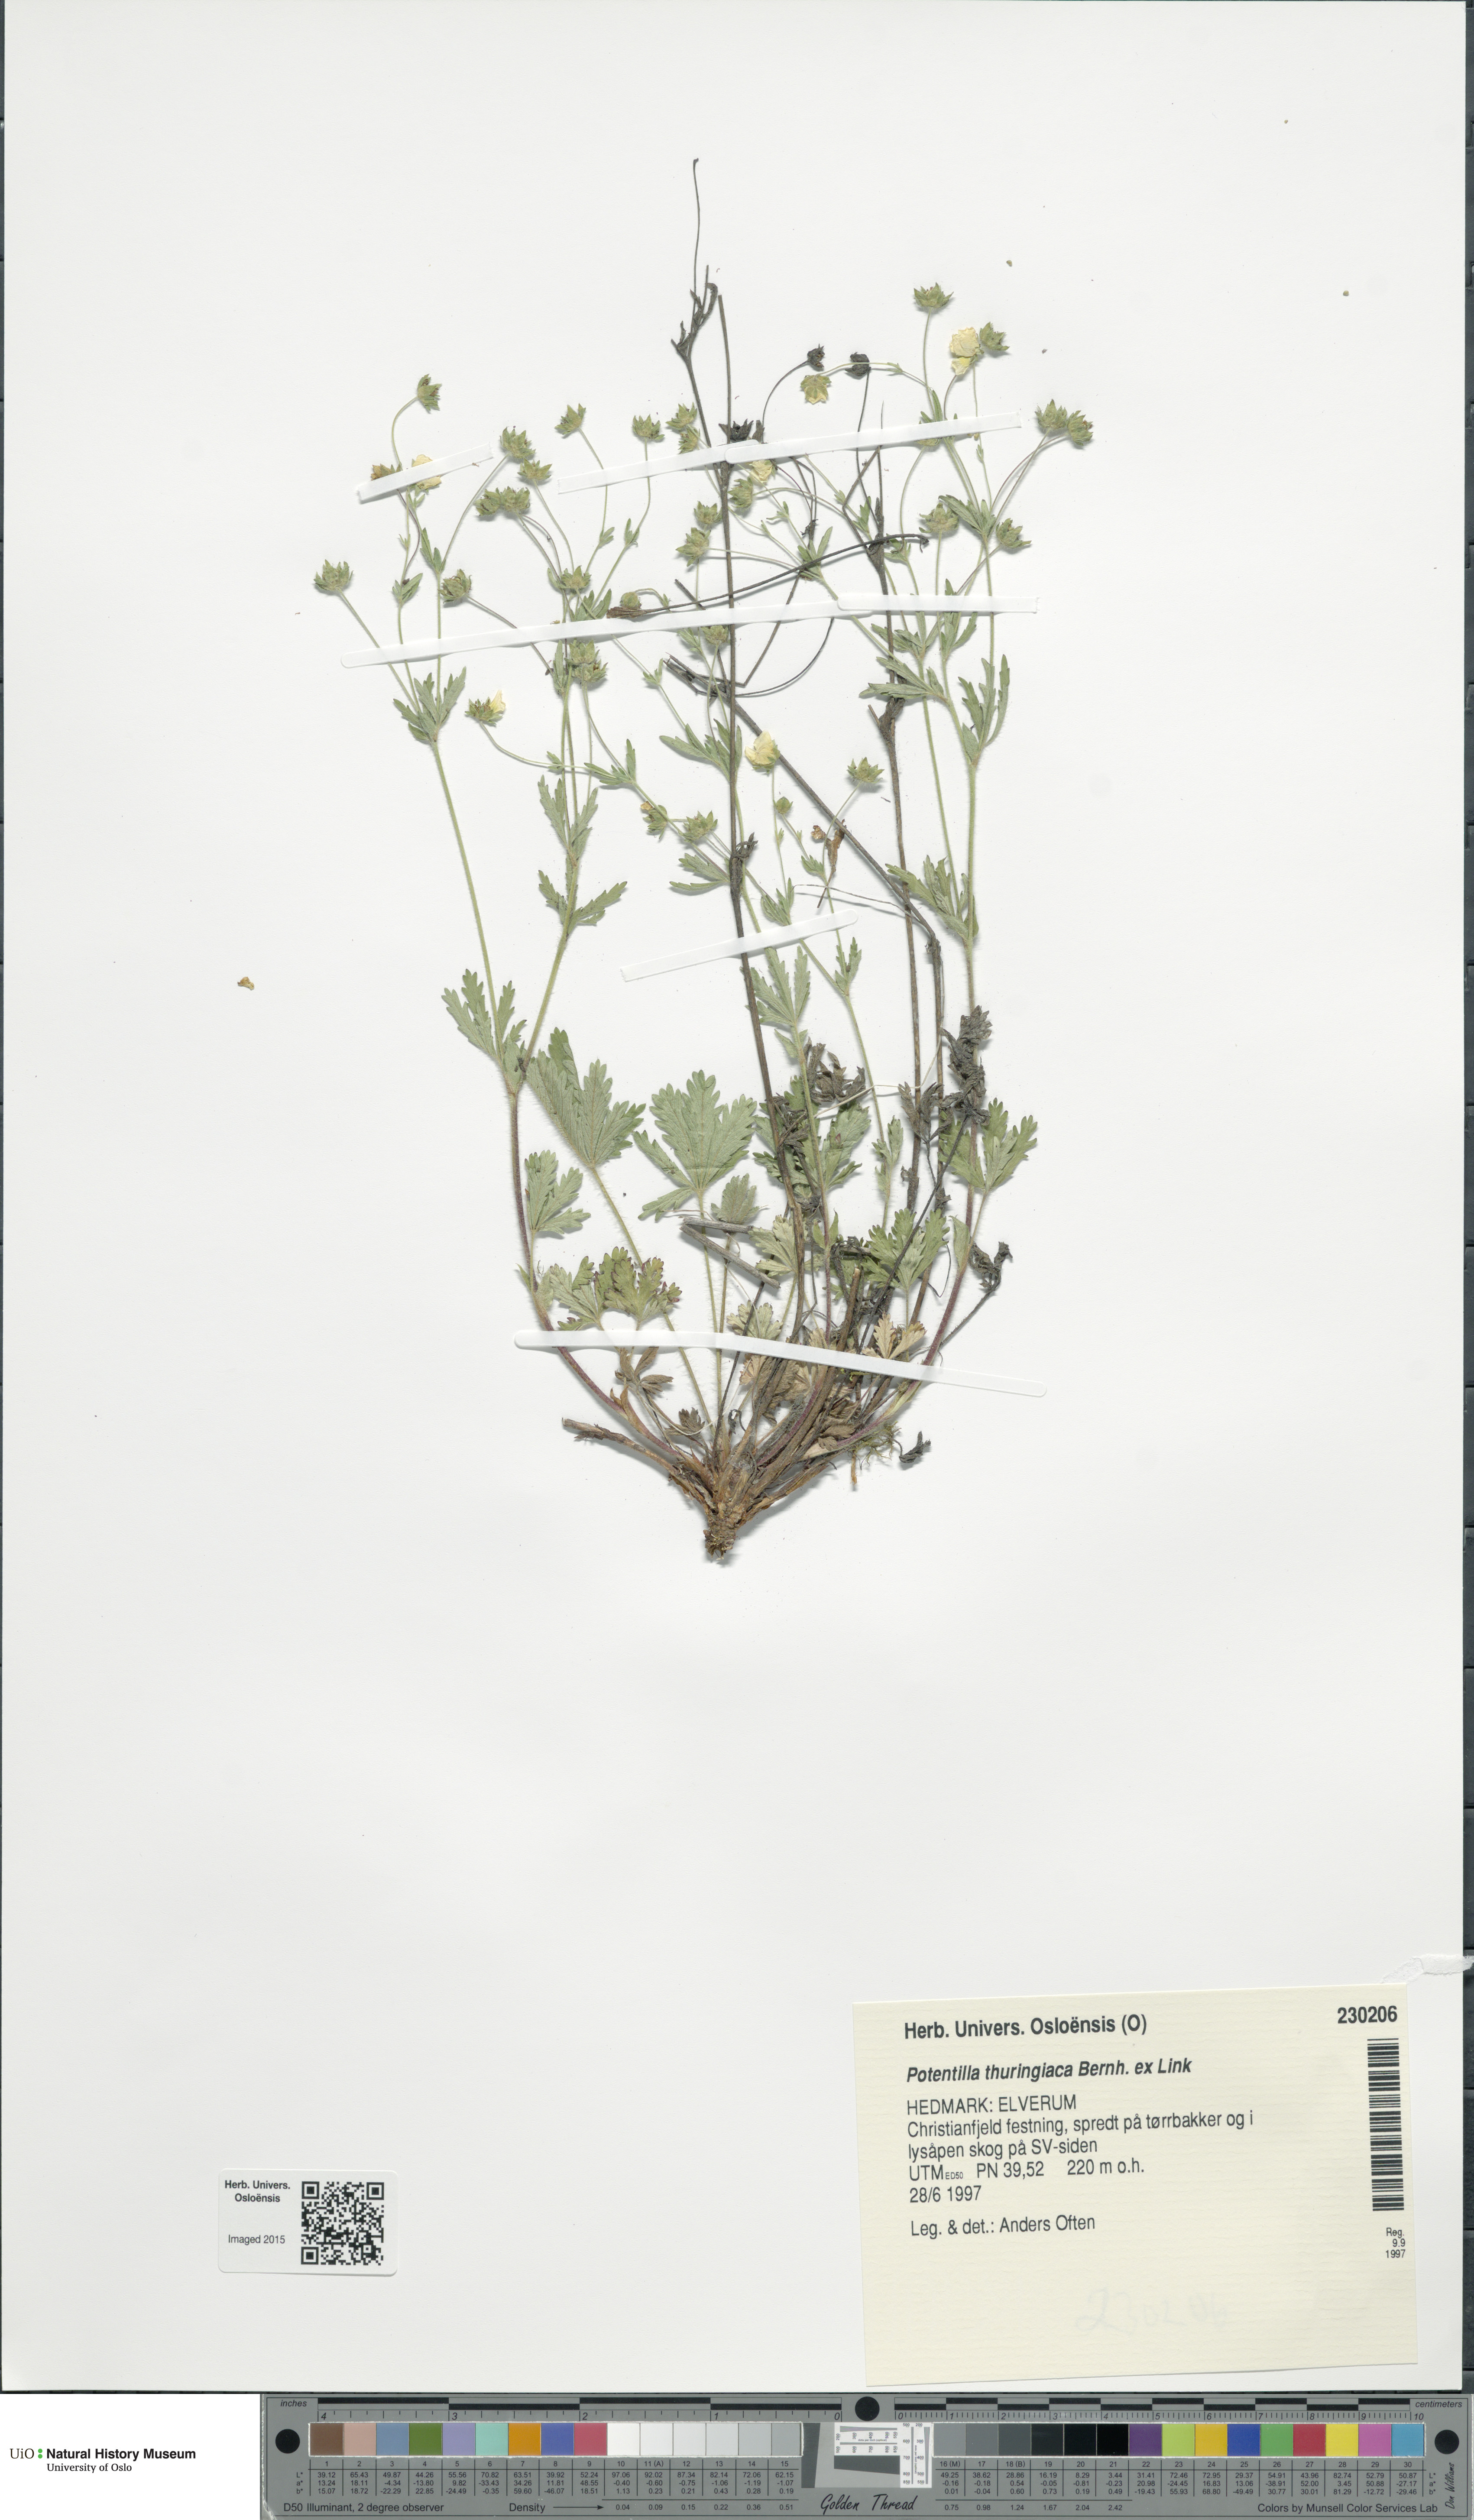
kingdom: Plantae
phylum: Tracheophyta
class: Magnoliopsida
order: Rosales
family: Rosaceae
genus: Potentilla
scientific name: Potentilla thuringiaca
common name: European cinquefoil
